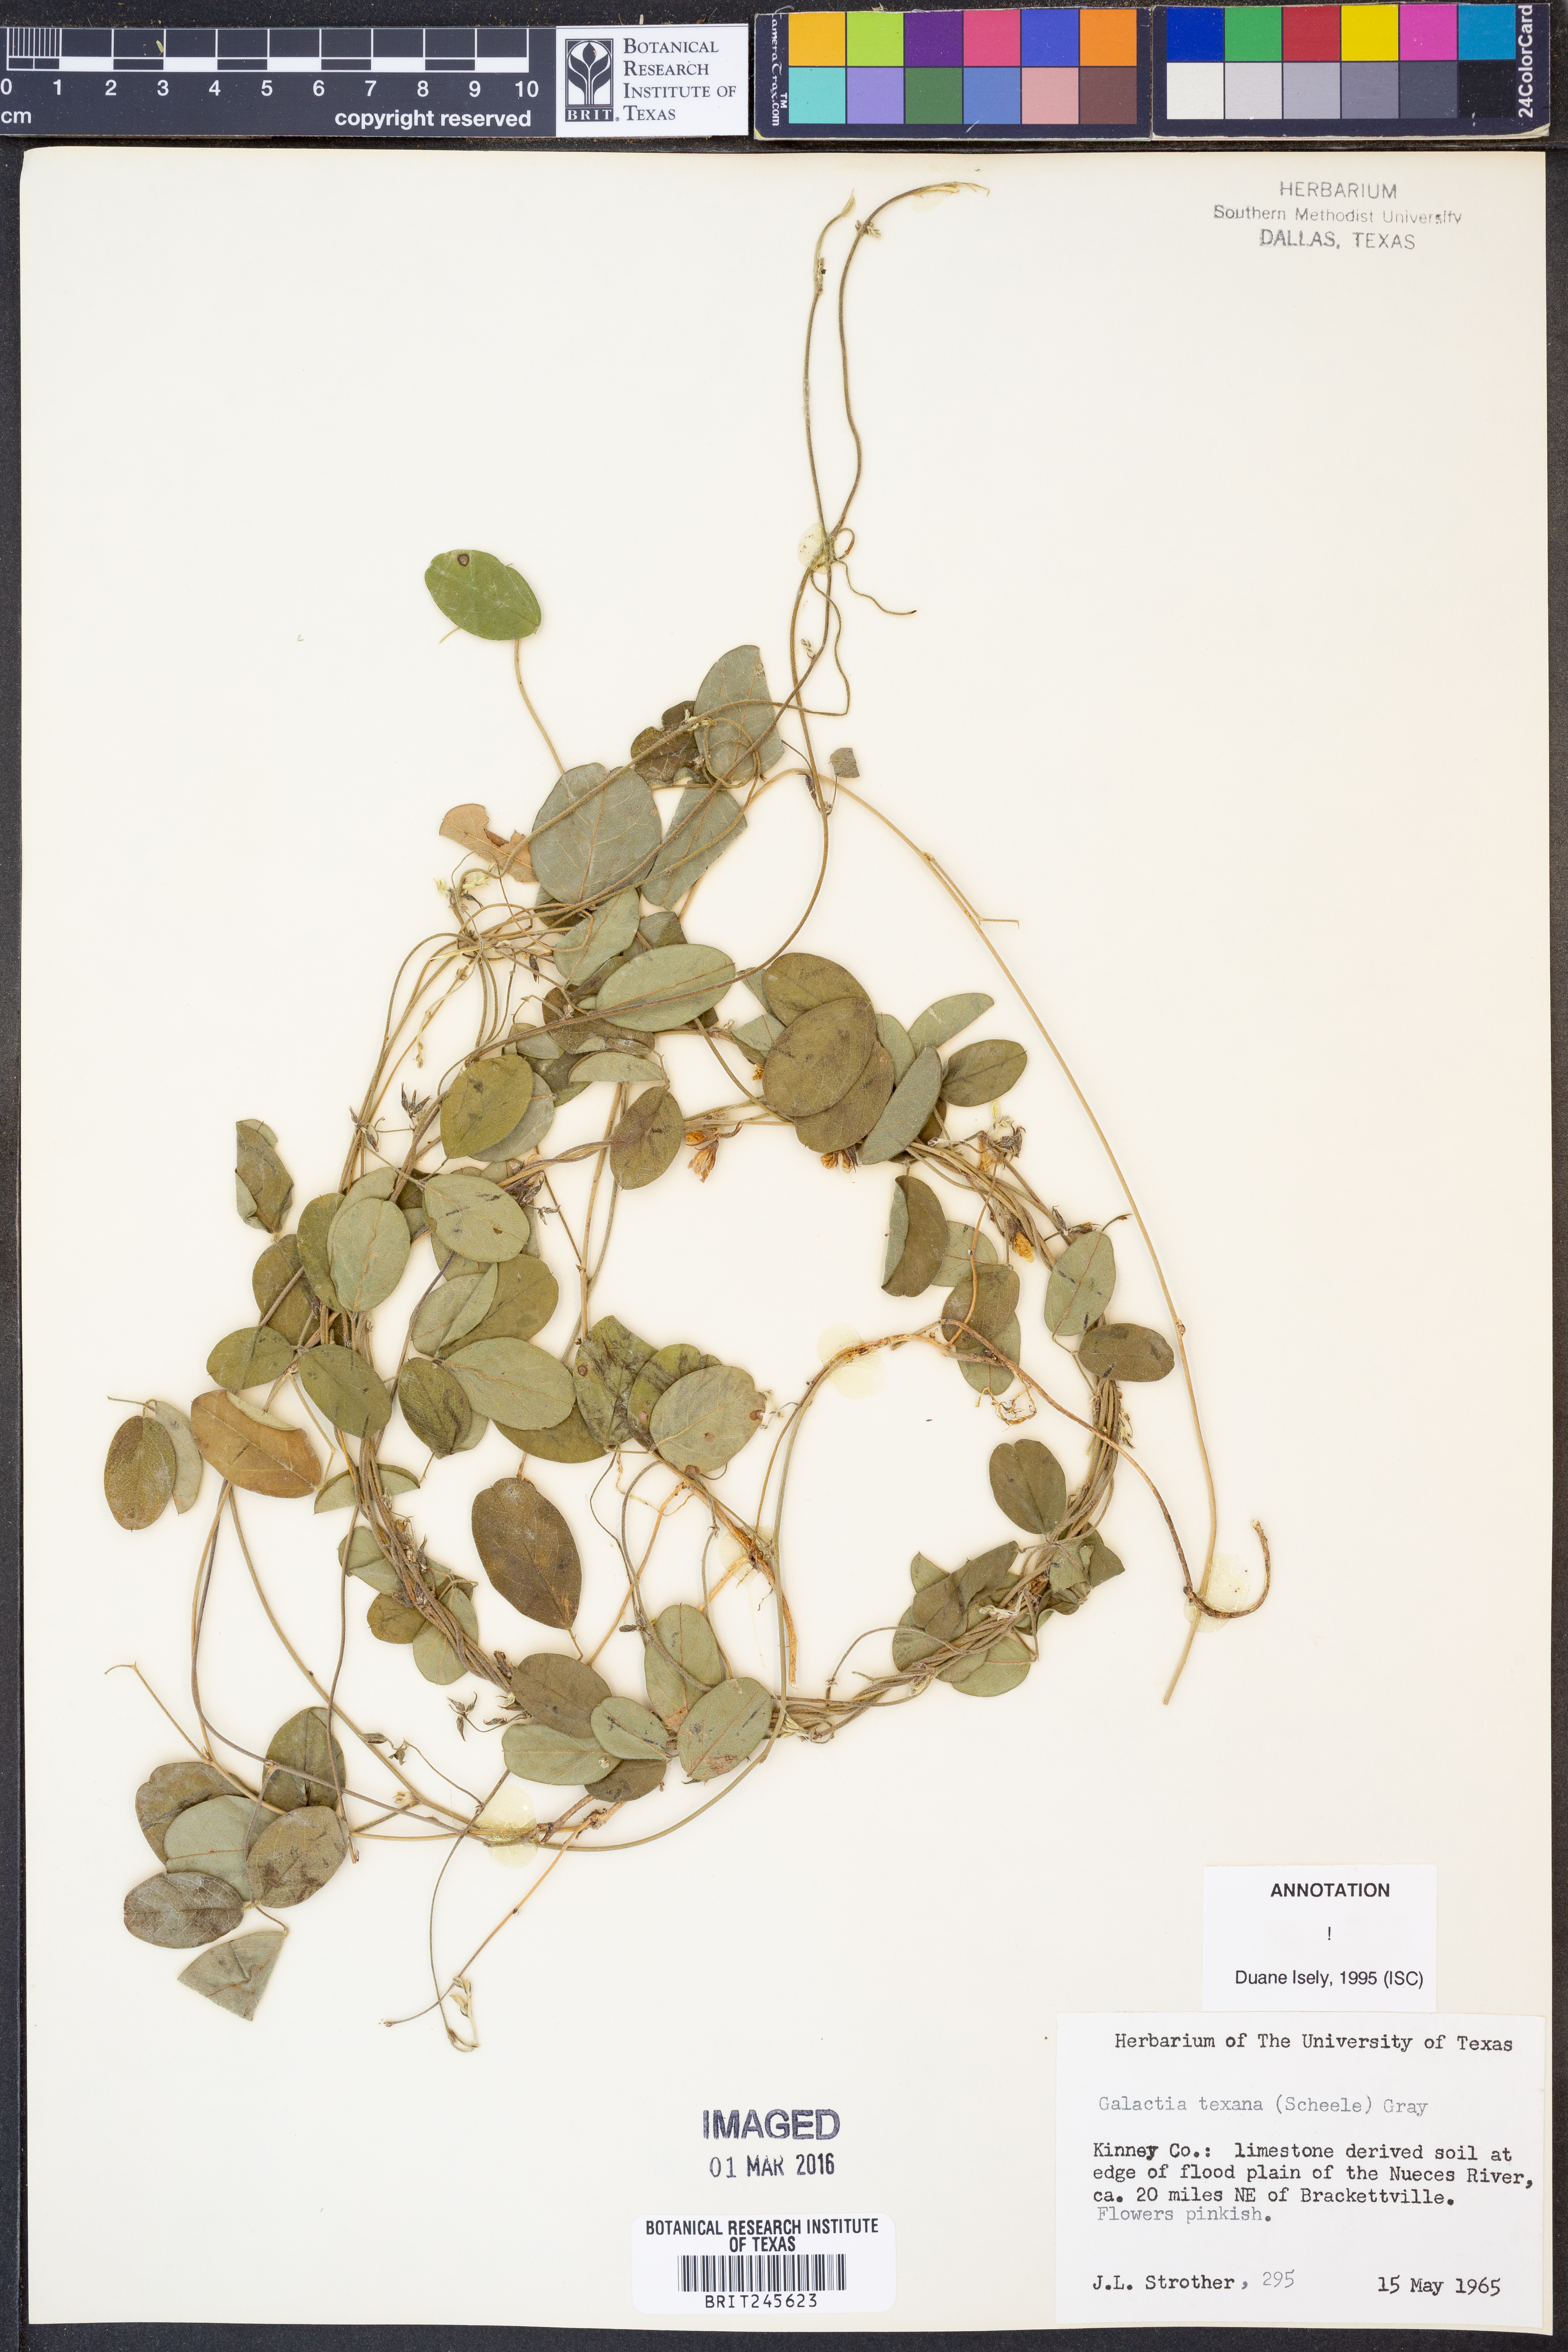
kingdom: Plantae
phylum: Tracheophyta
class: Magnoliopsida
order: Fabales
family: Fabaceae
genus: Galactia
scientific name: Galactia texana
